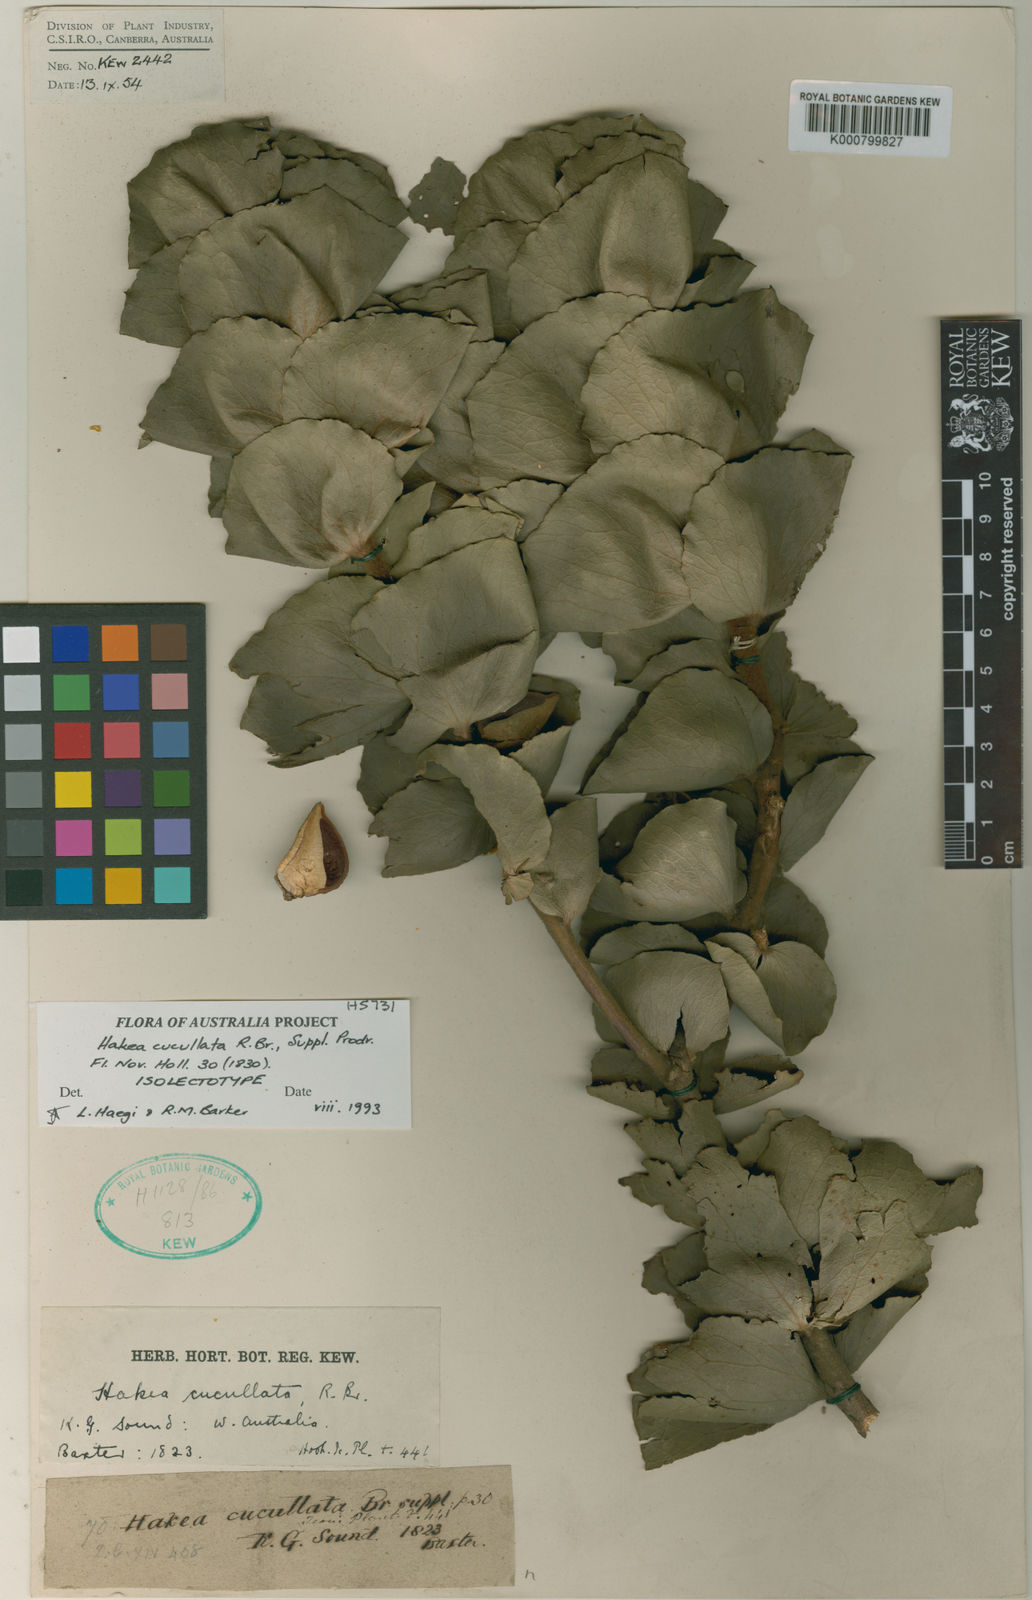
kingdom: Plantae
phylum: Tracheophyta
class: Magnoliopsida
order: Proteales
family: Proteaceae
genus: Hakea
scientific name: Hakea cucullata
